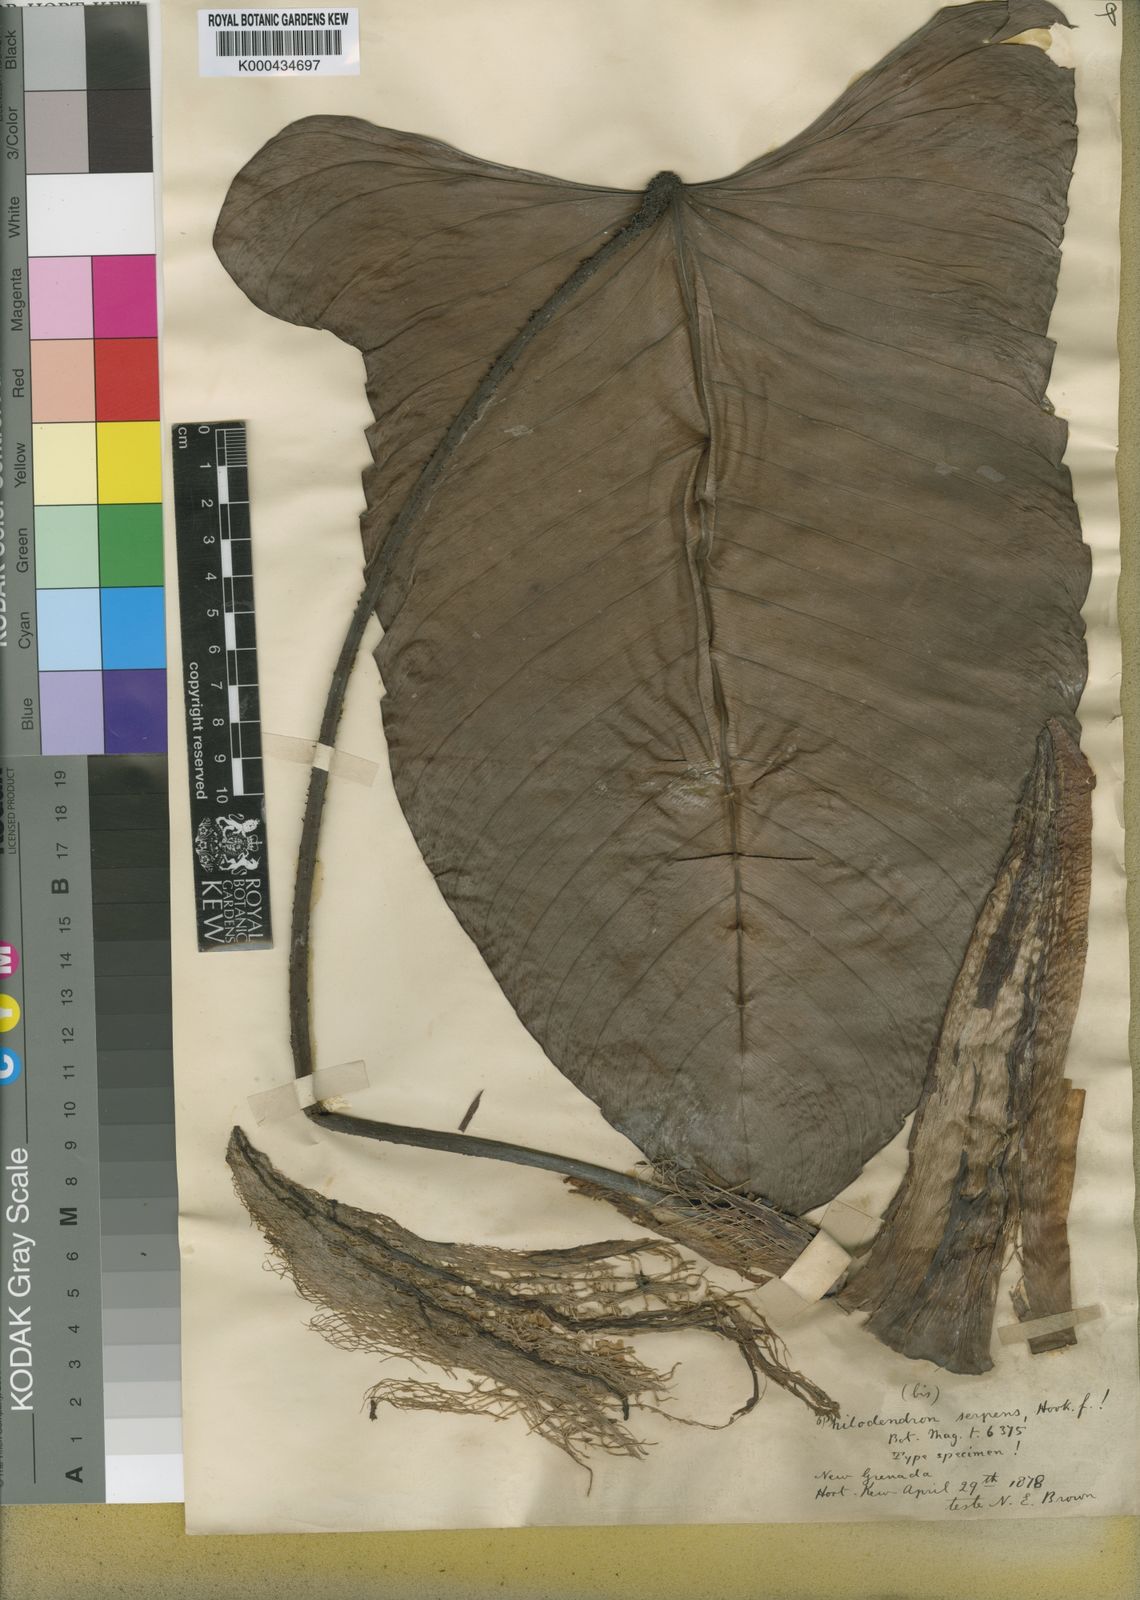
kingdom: Plantae
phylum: Tracheophyta
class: Liliopsida
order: Alismatales
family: Araceae
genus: Philodendron
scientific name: Philodendron serpens
